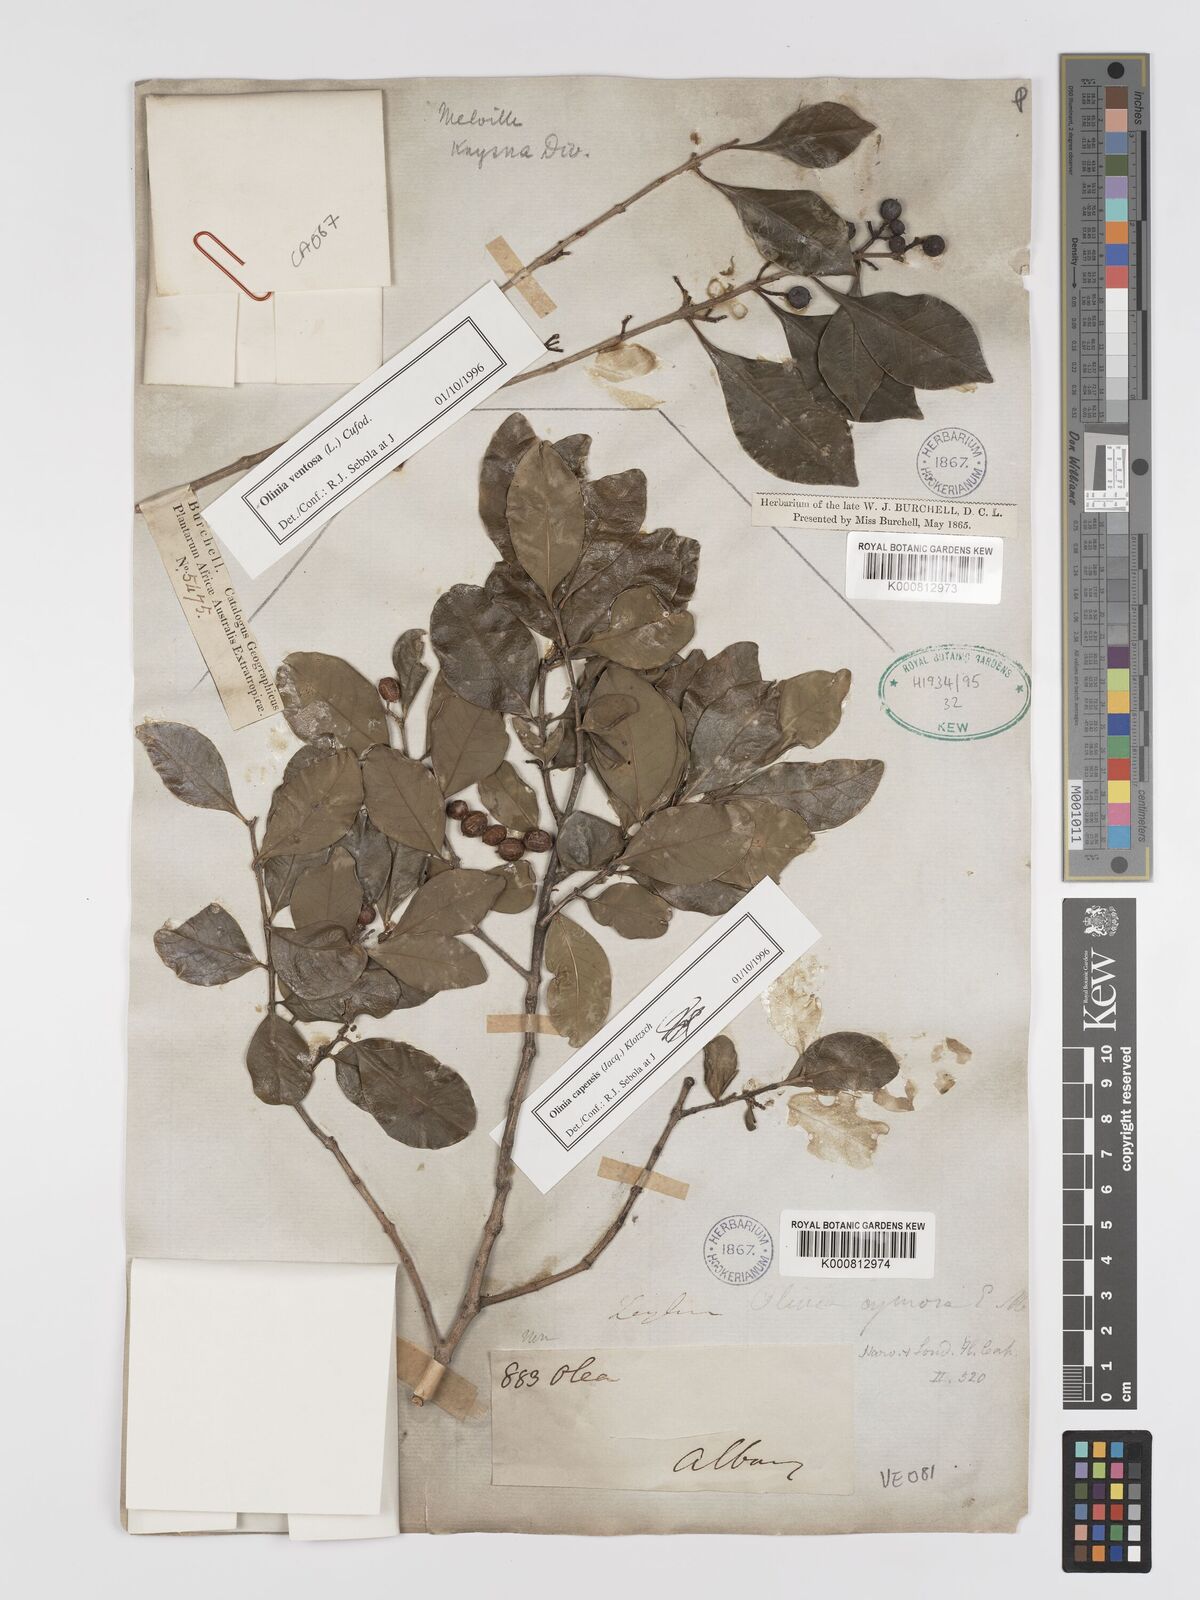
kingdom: Plantae
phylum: Tracheophyta
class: Magnoliopsida
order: Myrtales
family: Penaeaceae
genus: Olinia
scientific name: Olinia ventosa
